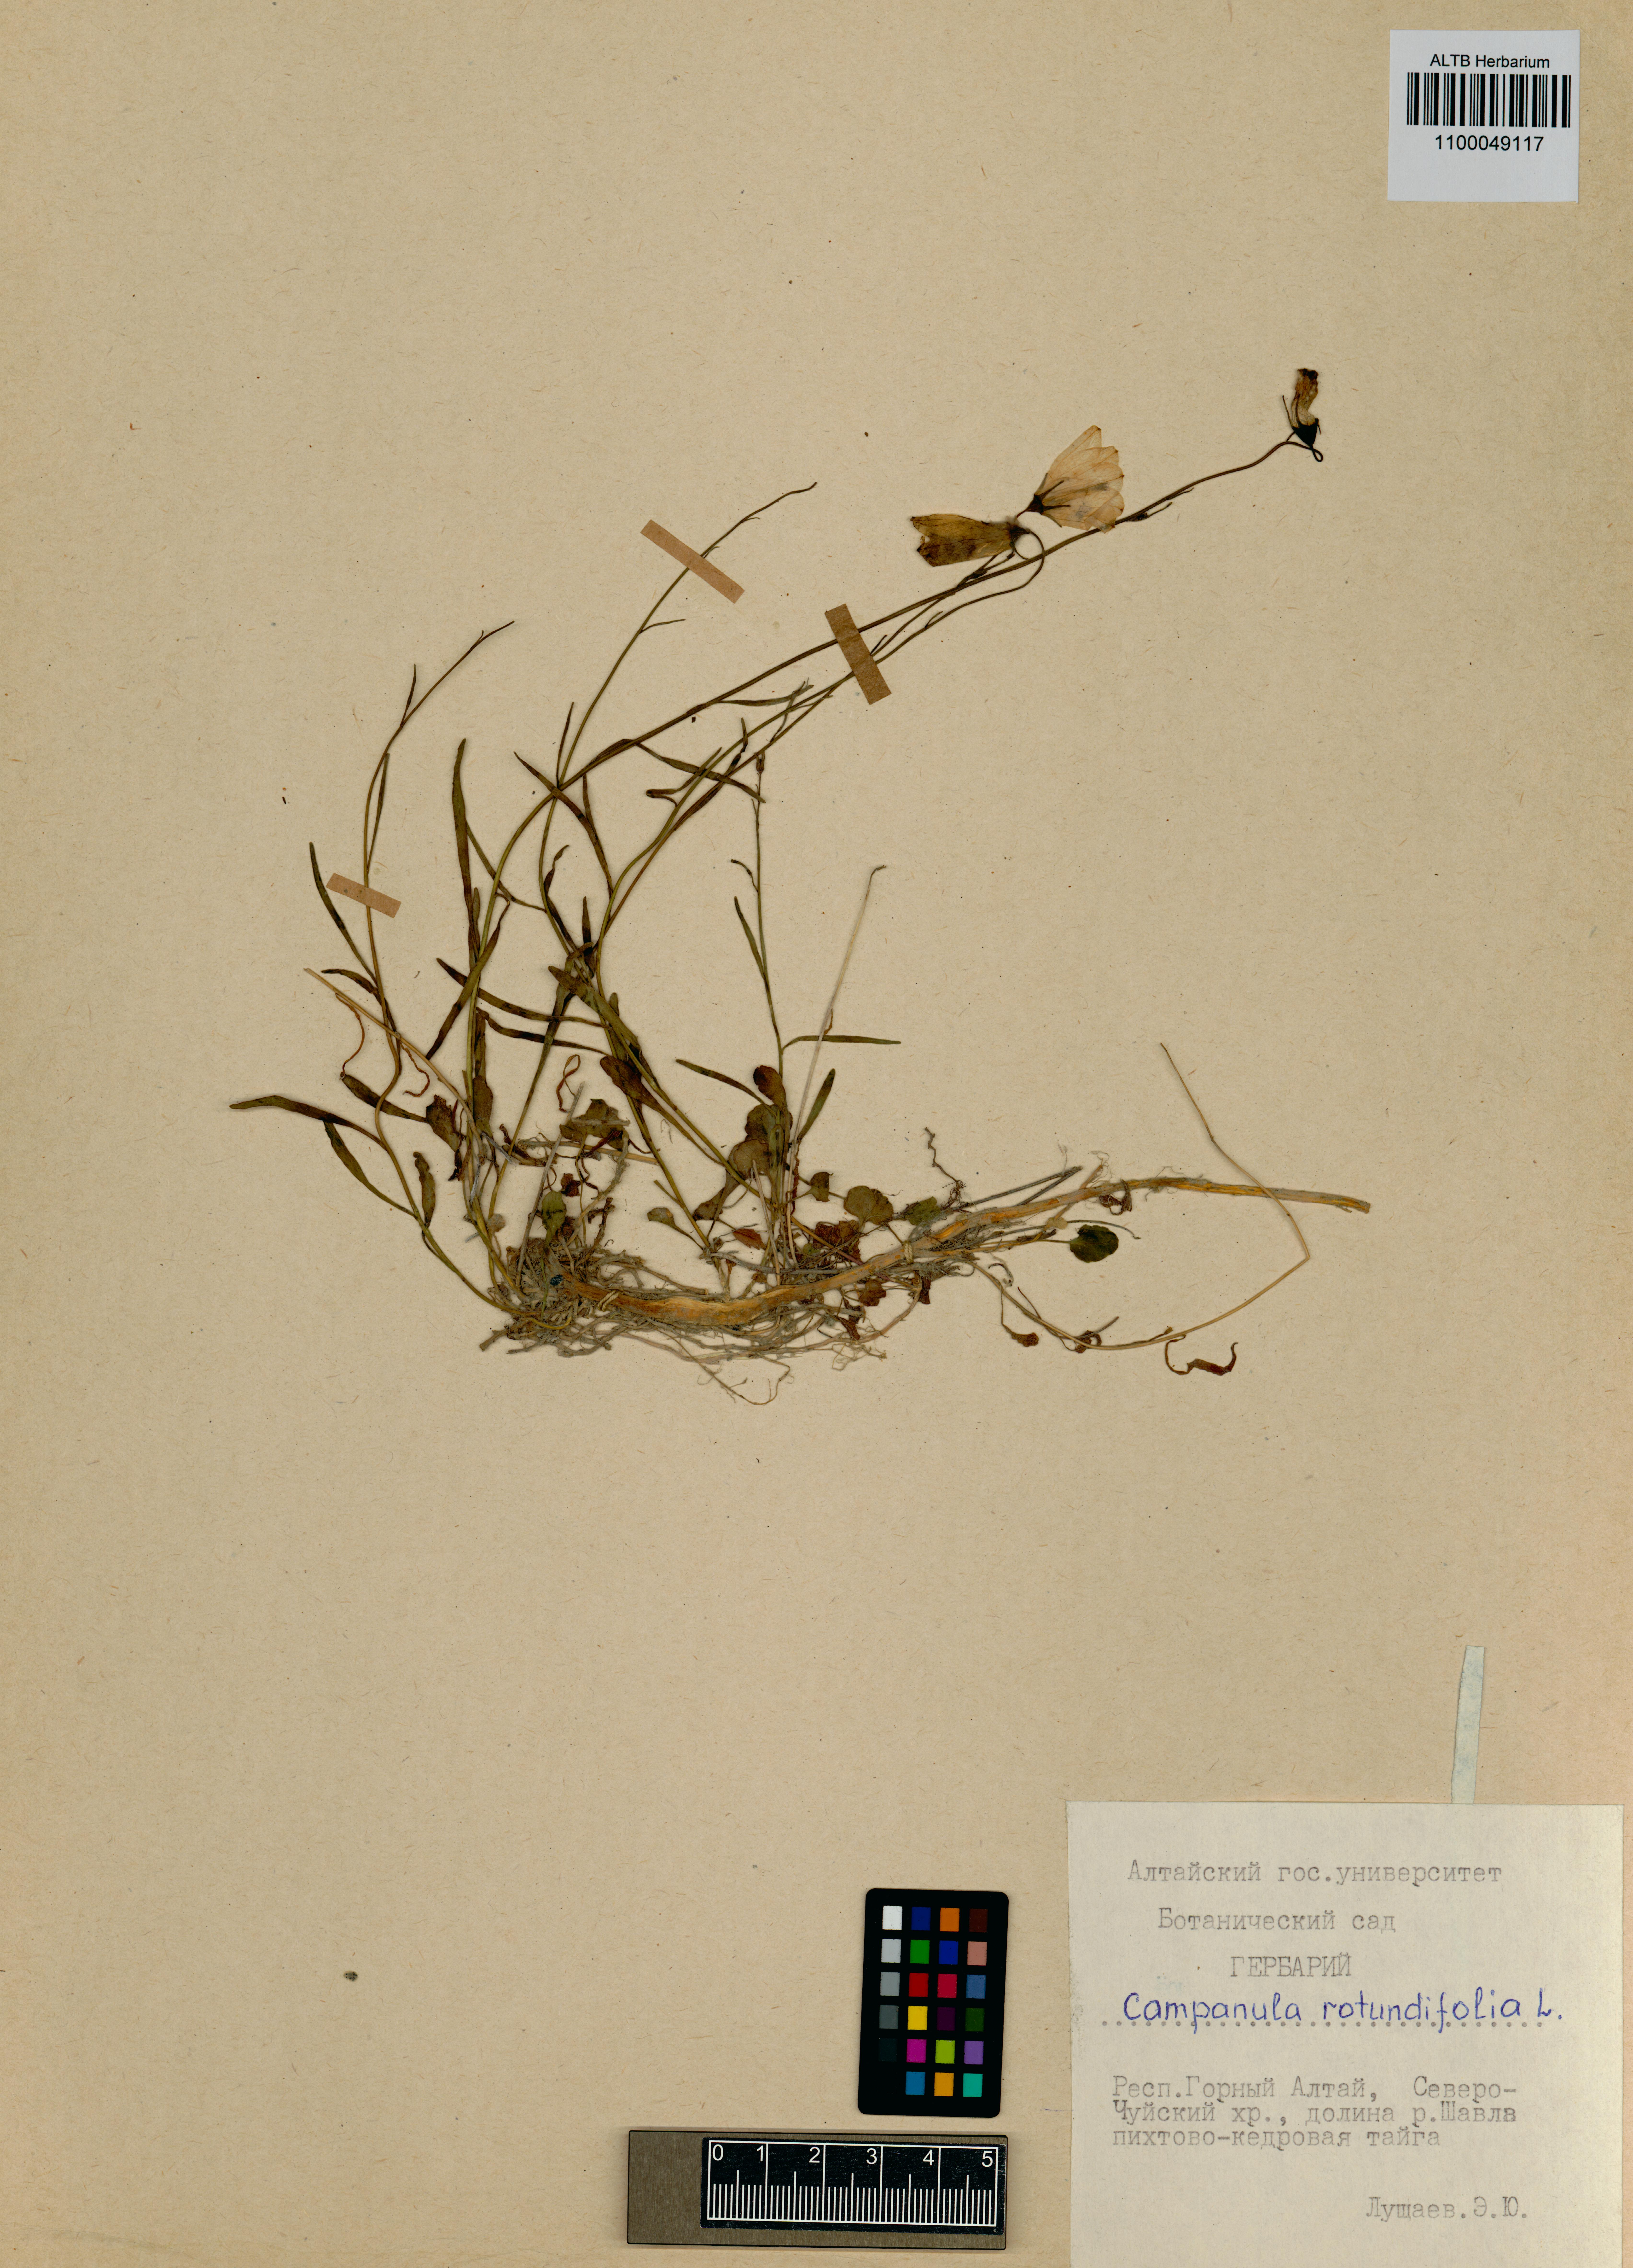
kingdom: Plantae
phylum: Tracheophyta
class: Magnoliopsida
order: Asterales
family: Campanulaceae
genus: Campanula
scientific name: Campanula rotundifolia
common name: Harebell
